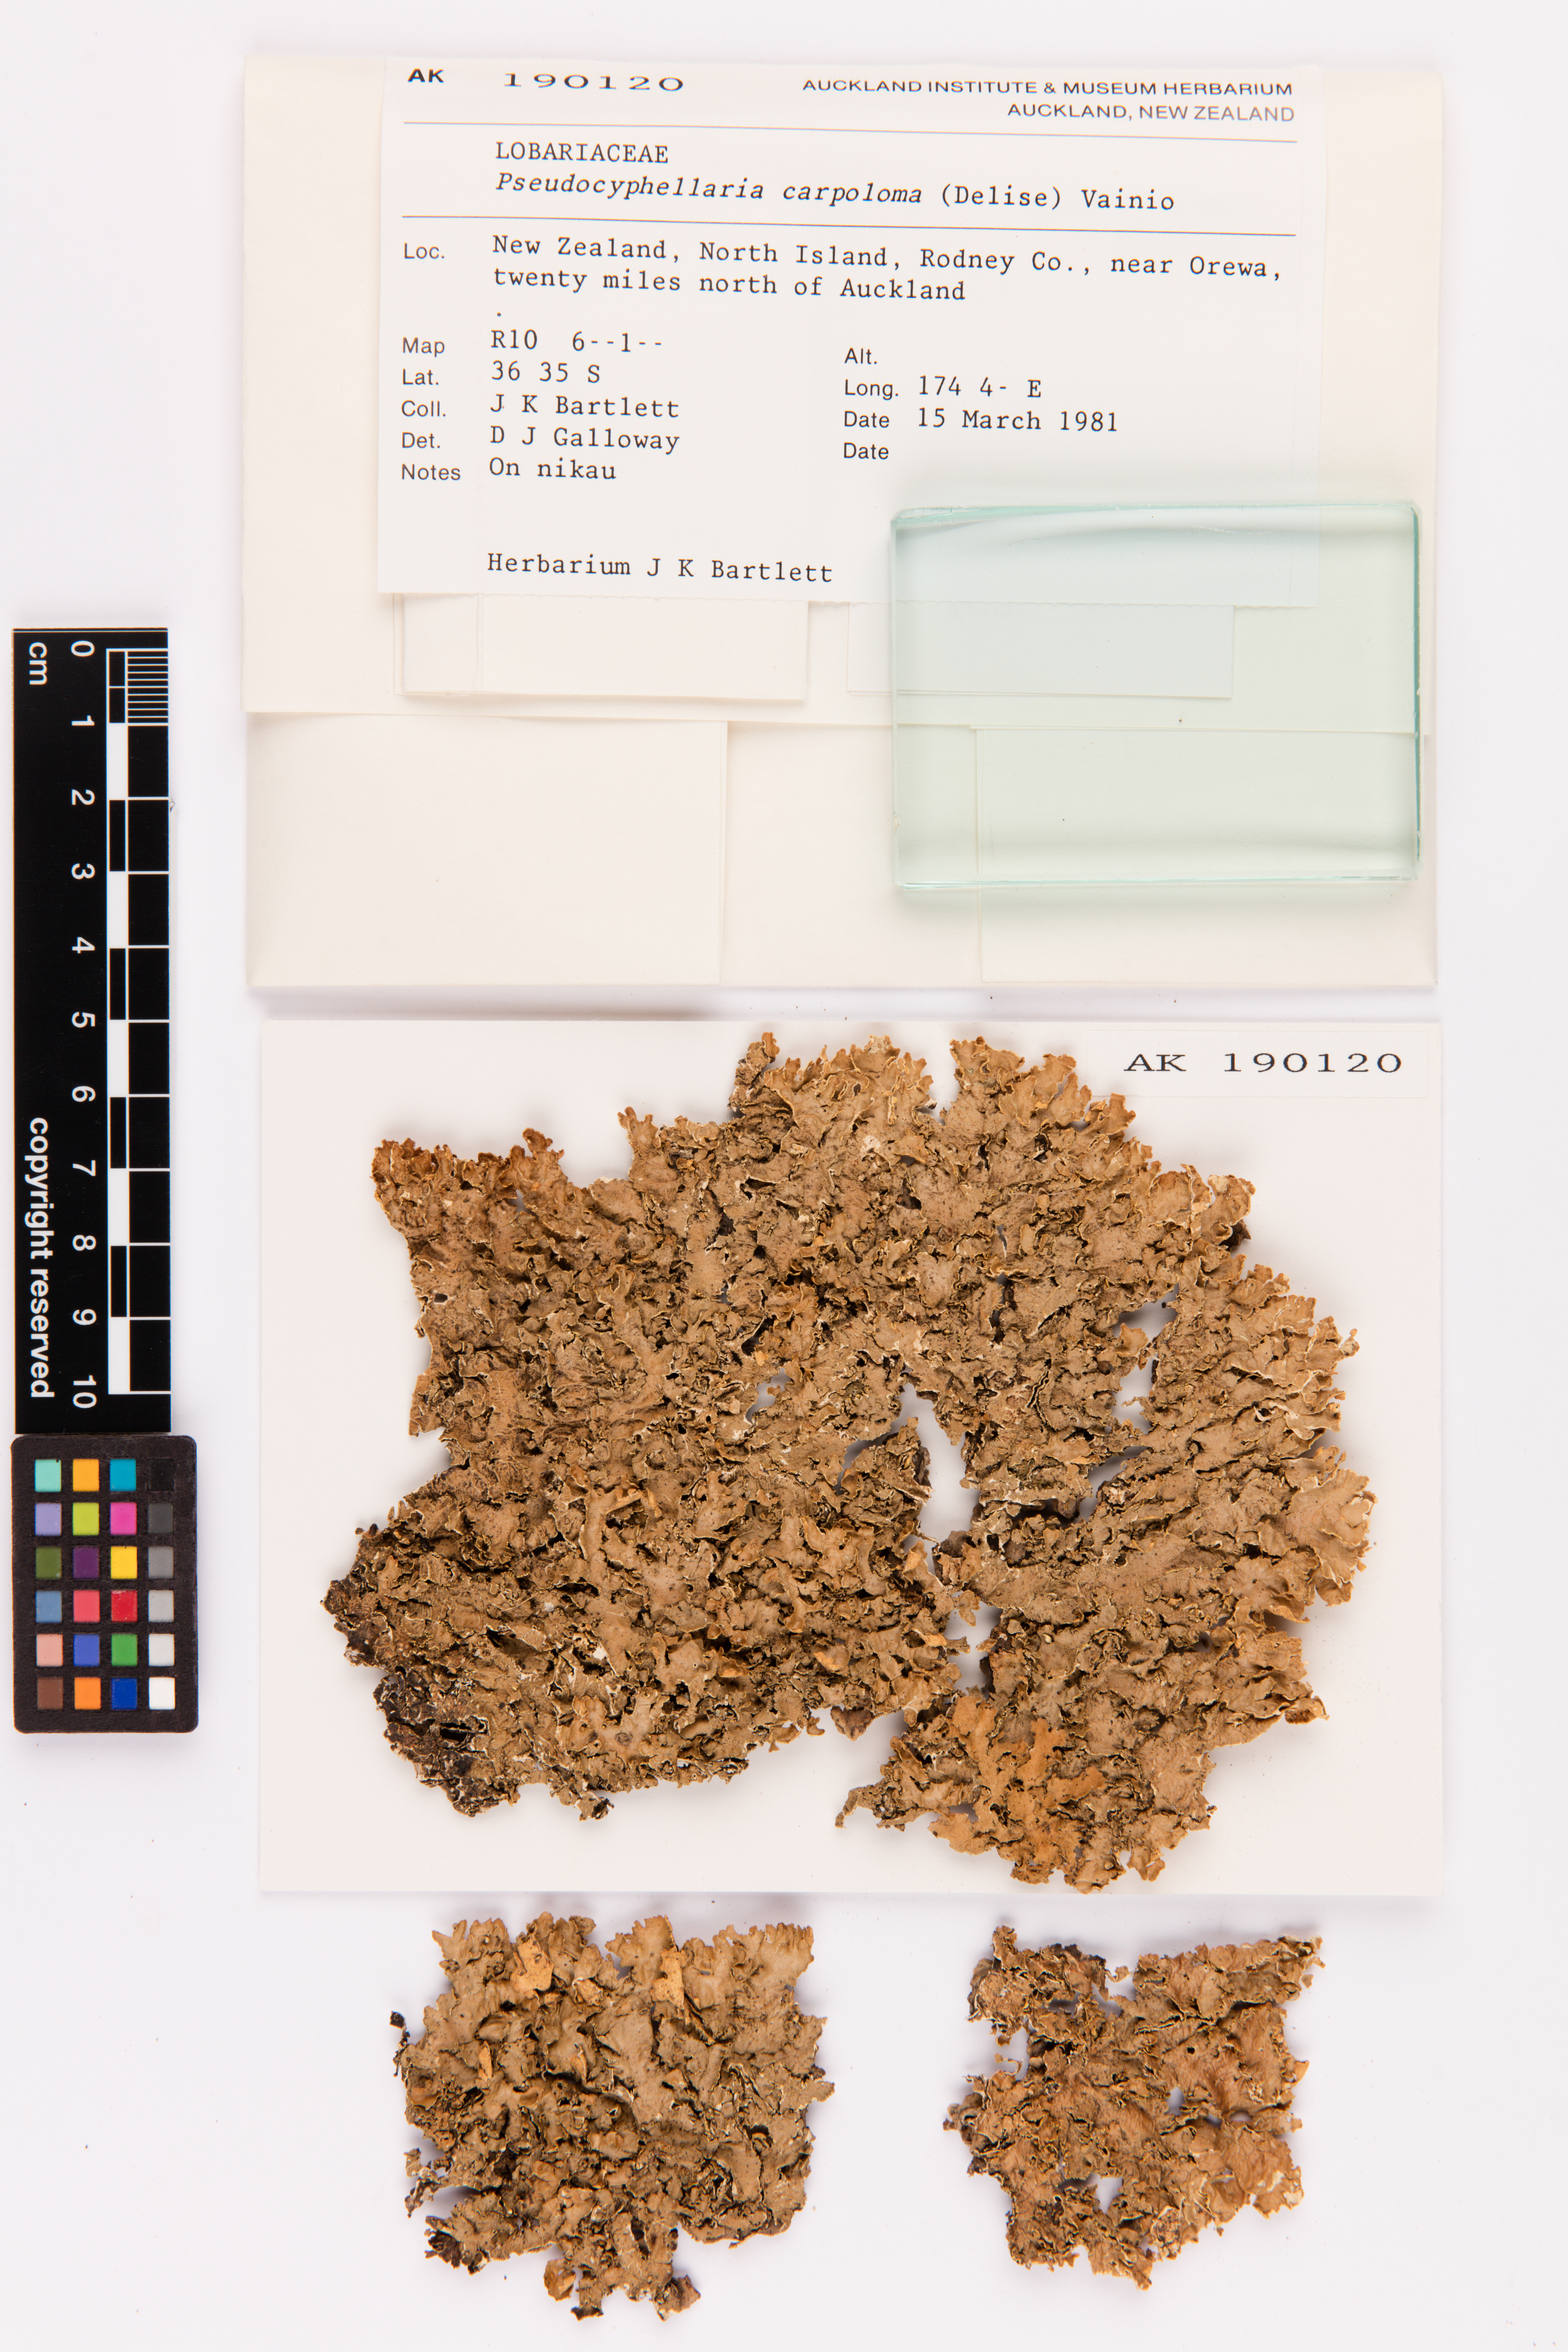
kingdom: Fungi
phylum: Ascomycota
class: Lecanoromycetes
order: Peltigerales
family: Lobariaceae
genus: Pseudocyphellaria
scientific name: Pseudocyphellaria carpoloma
